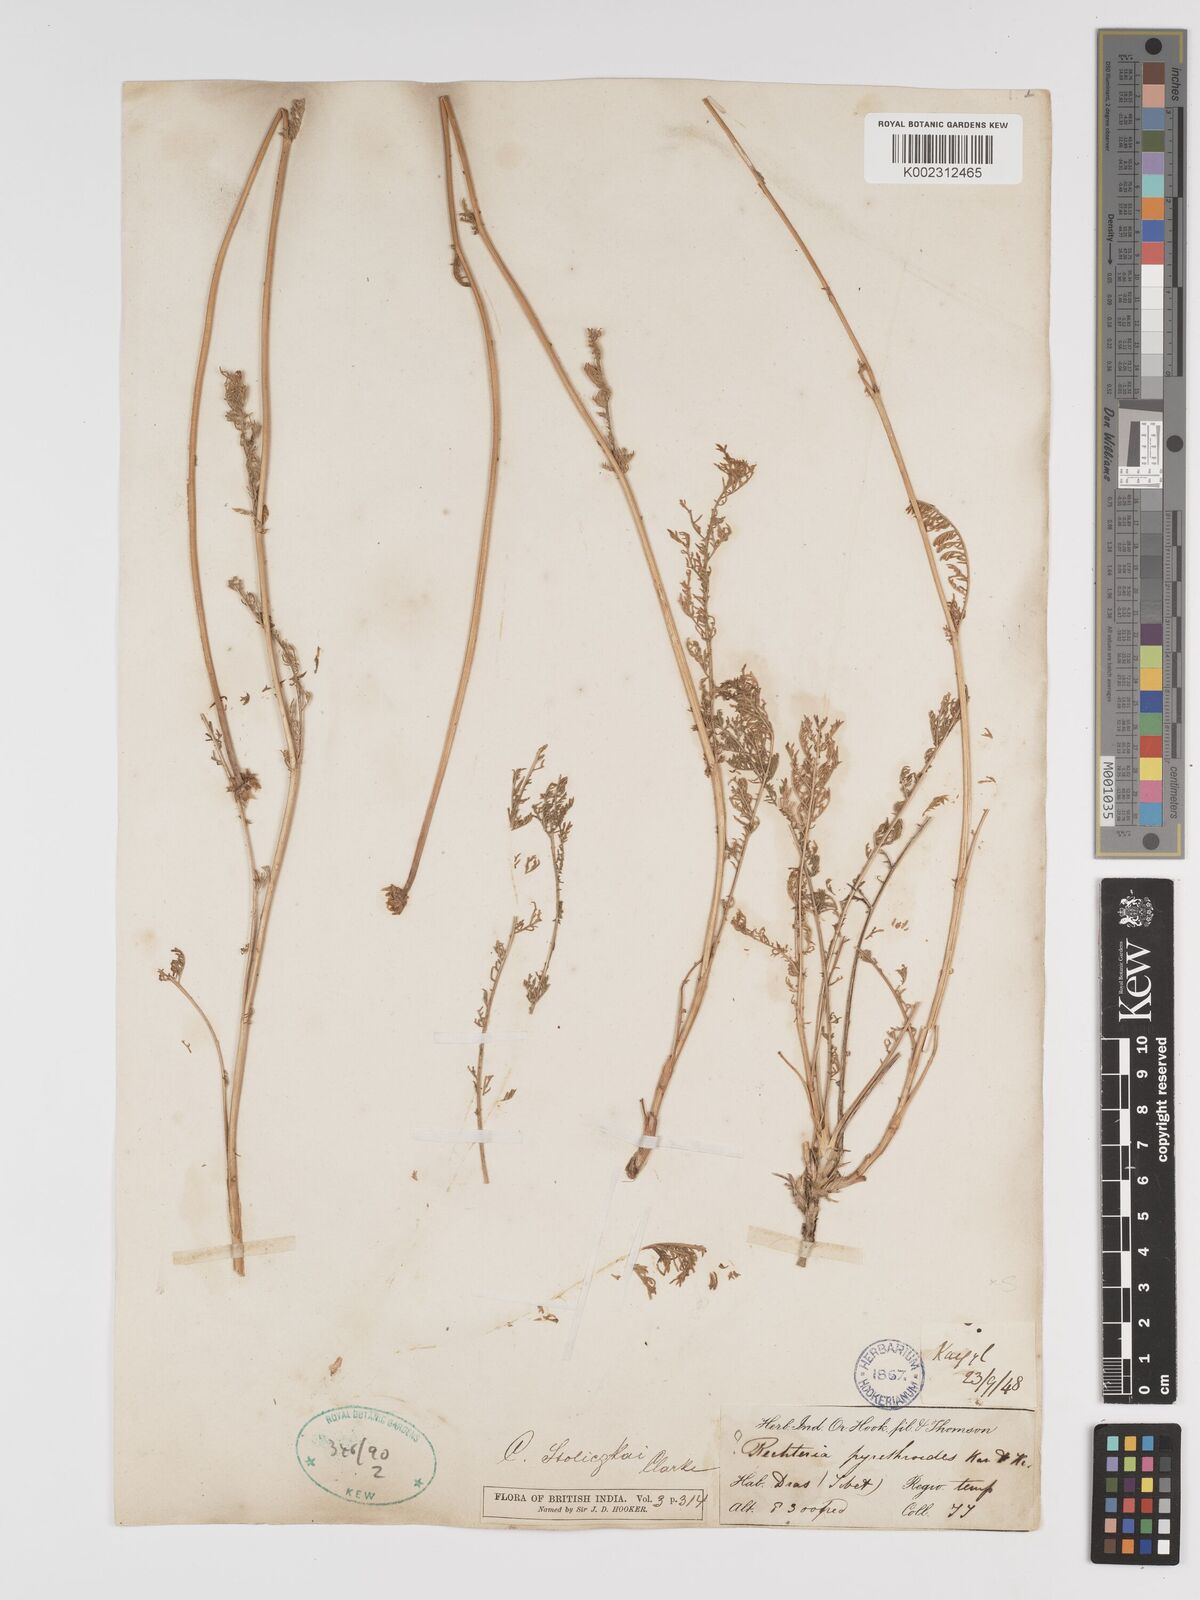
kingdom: Plantae
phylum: Tracheophyta
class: Magnoliopsida
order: Asterales
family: Asteraceae
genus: Tanacetum
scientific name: Tanacetum stoliczkae
